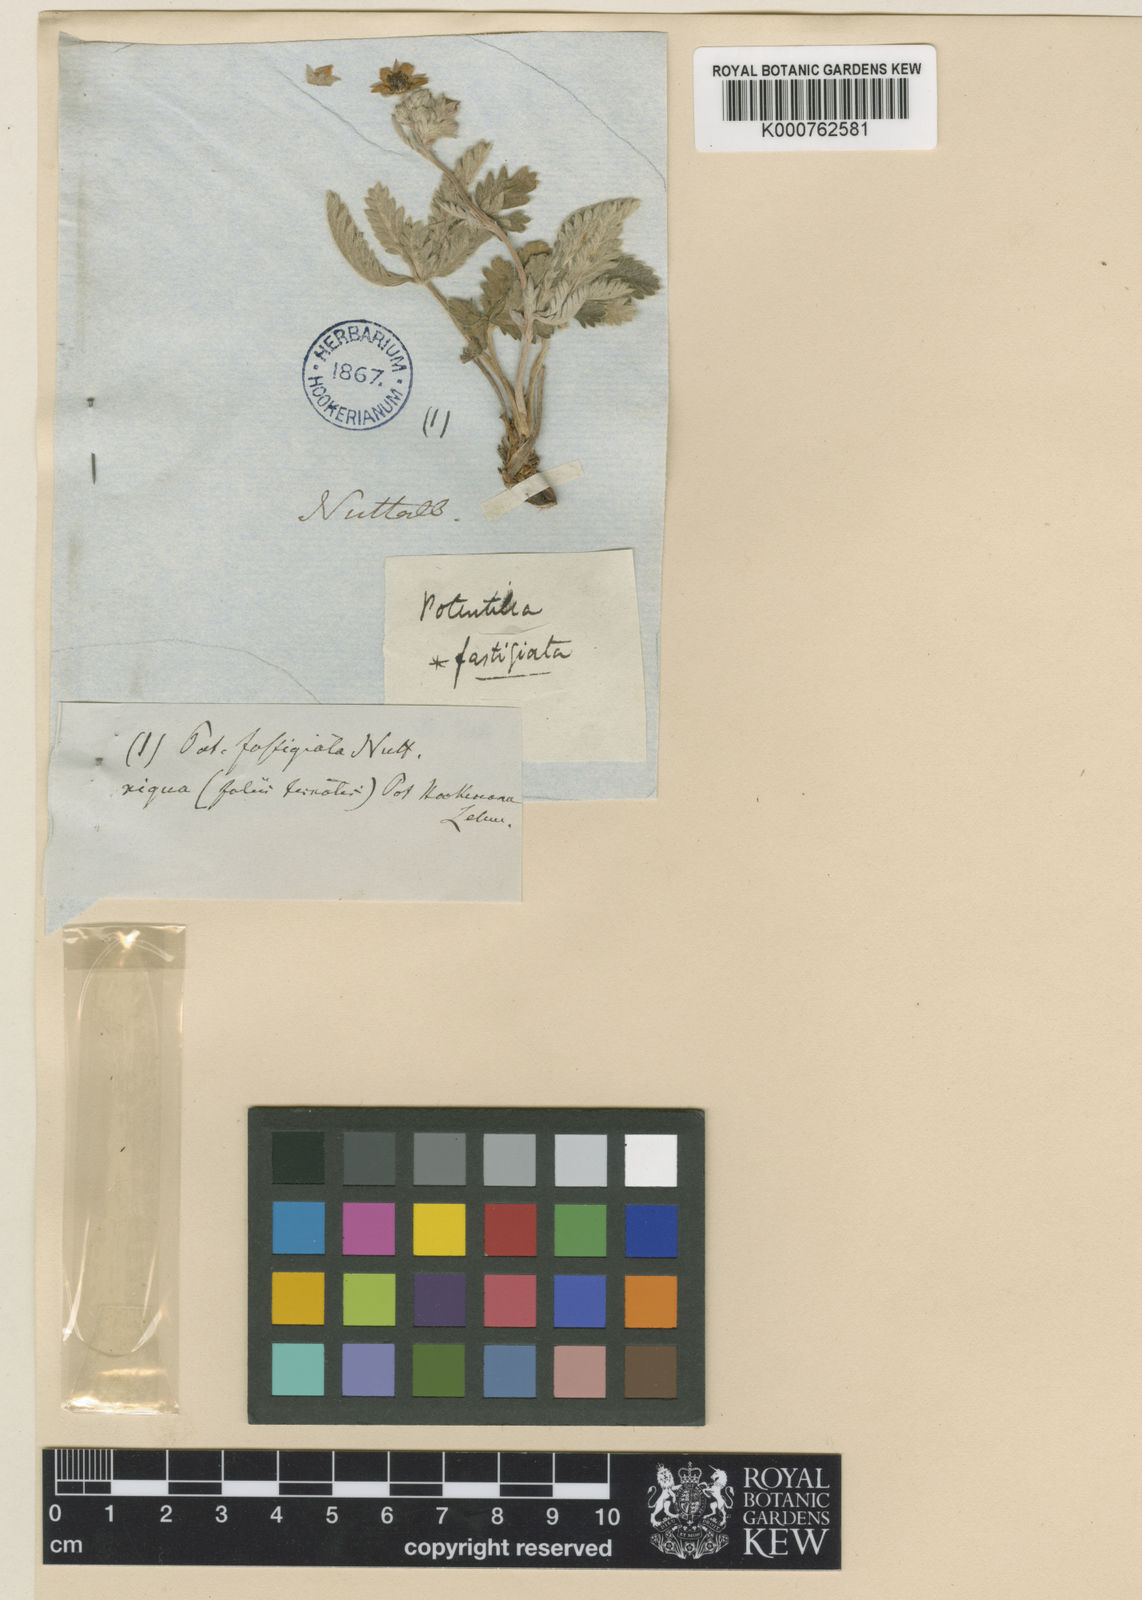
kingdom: Plantae
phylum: Tracheophyta
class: Magnoliopsida
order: Rosales
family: Rosaceae
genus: Potentilla
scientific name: Potentilla gracilis
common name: Graceful cinquefoil
